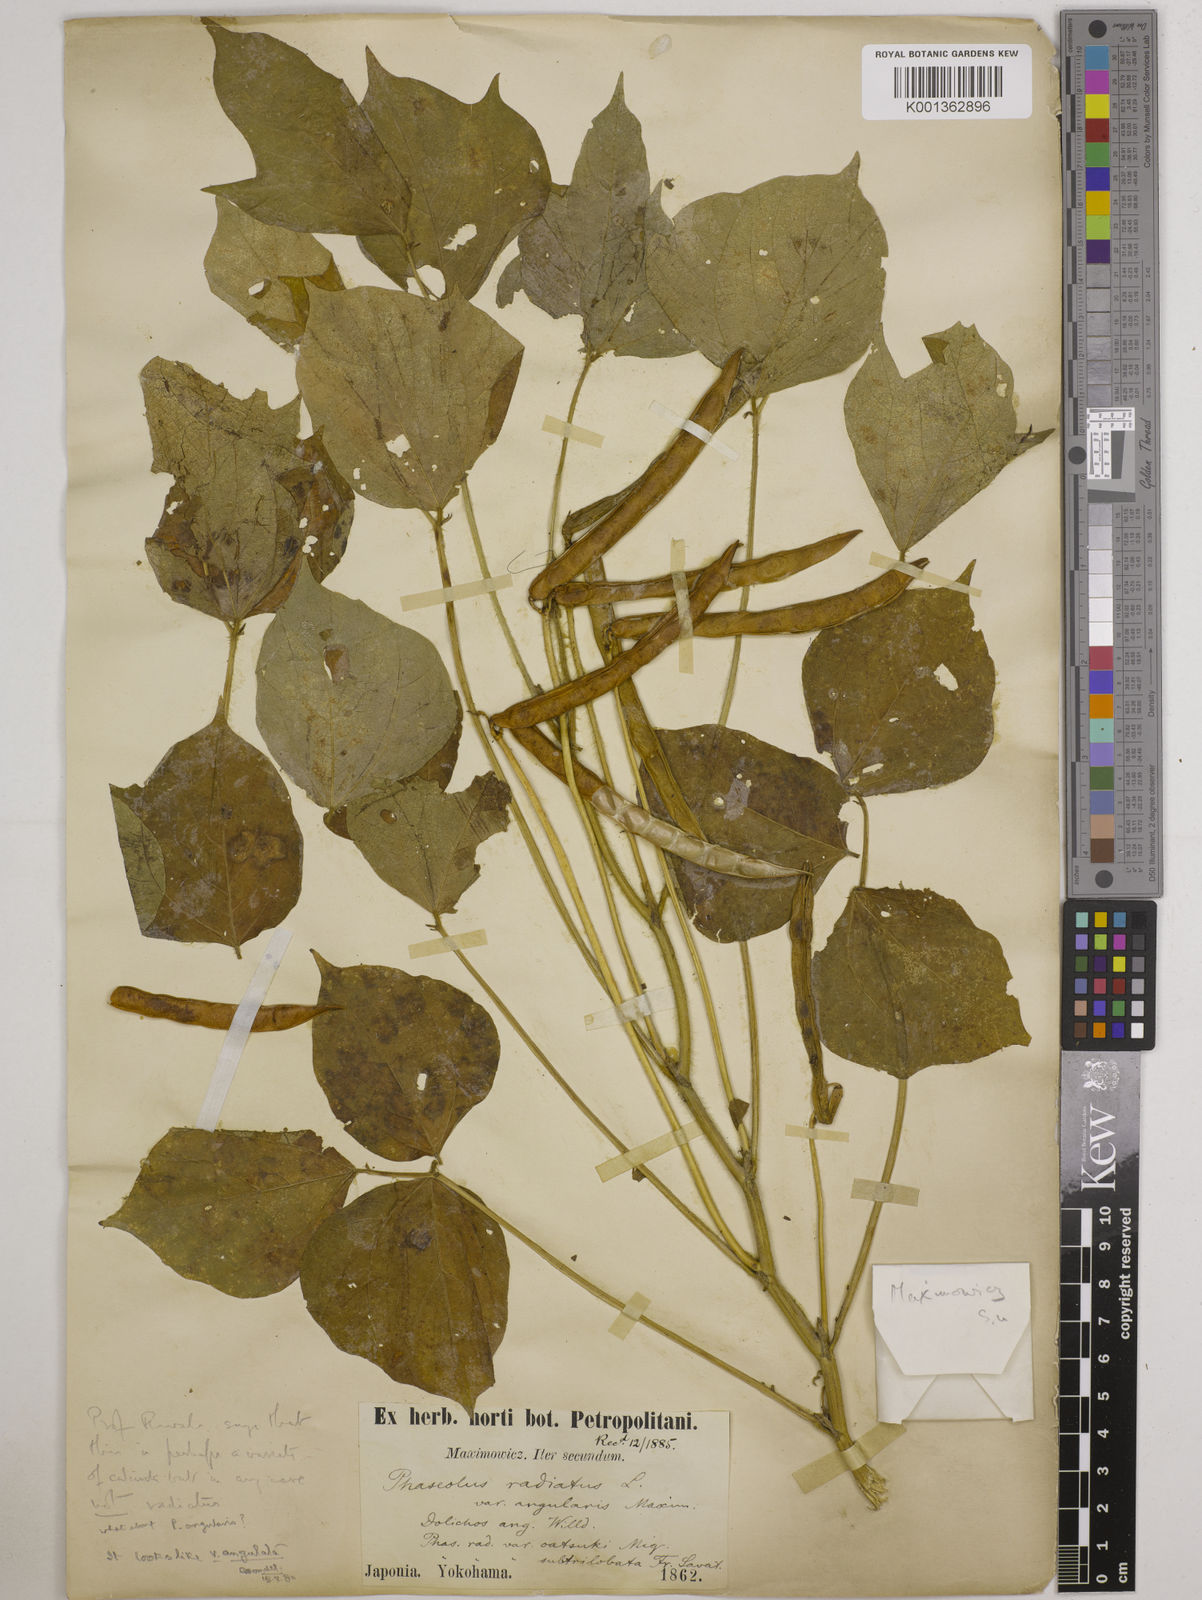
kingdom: Plantae
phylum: Tracheophyta
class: Magnoliopsida
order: Fabales
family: Fabaceae
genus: Vigna
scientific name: Vigna angularis
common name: Adzuki bean
